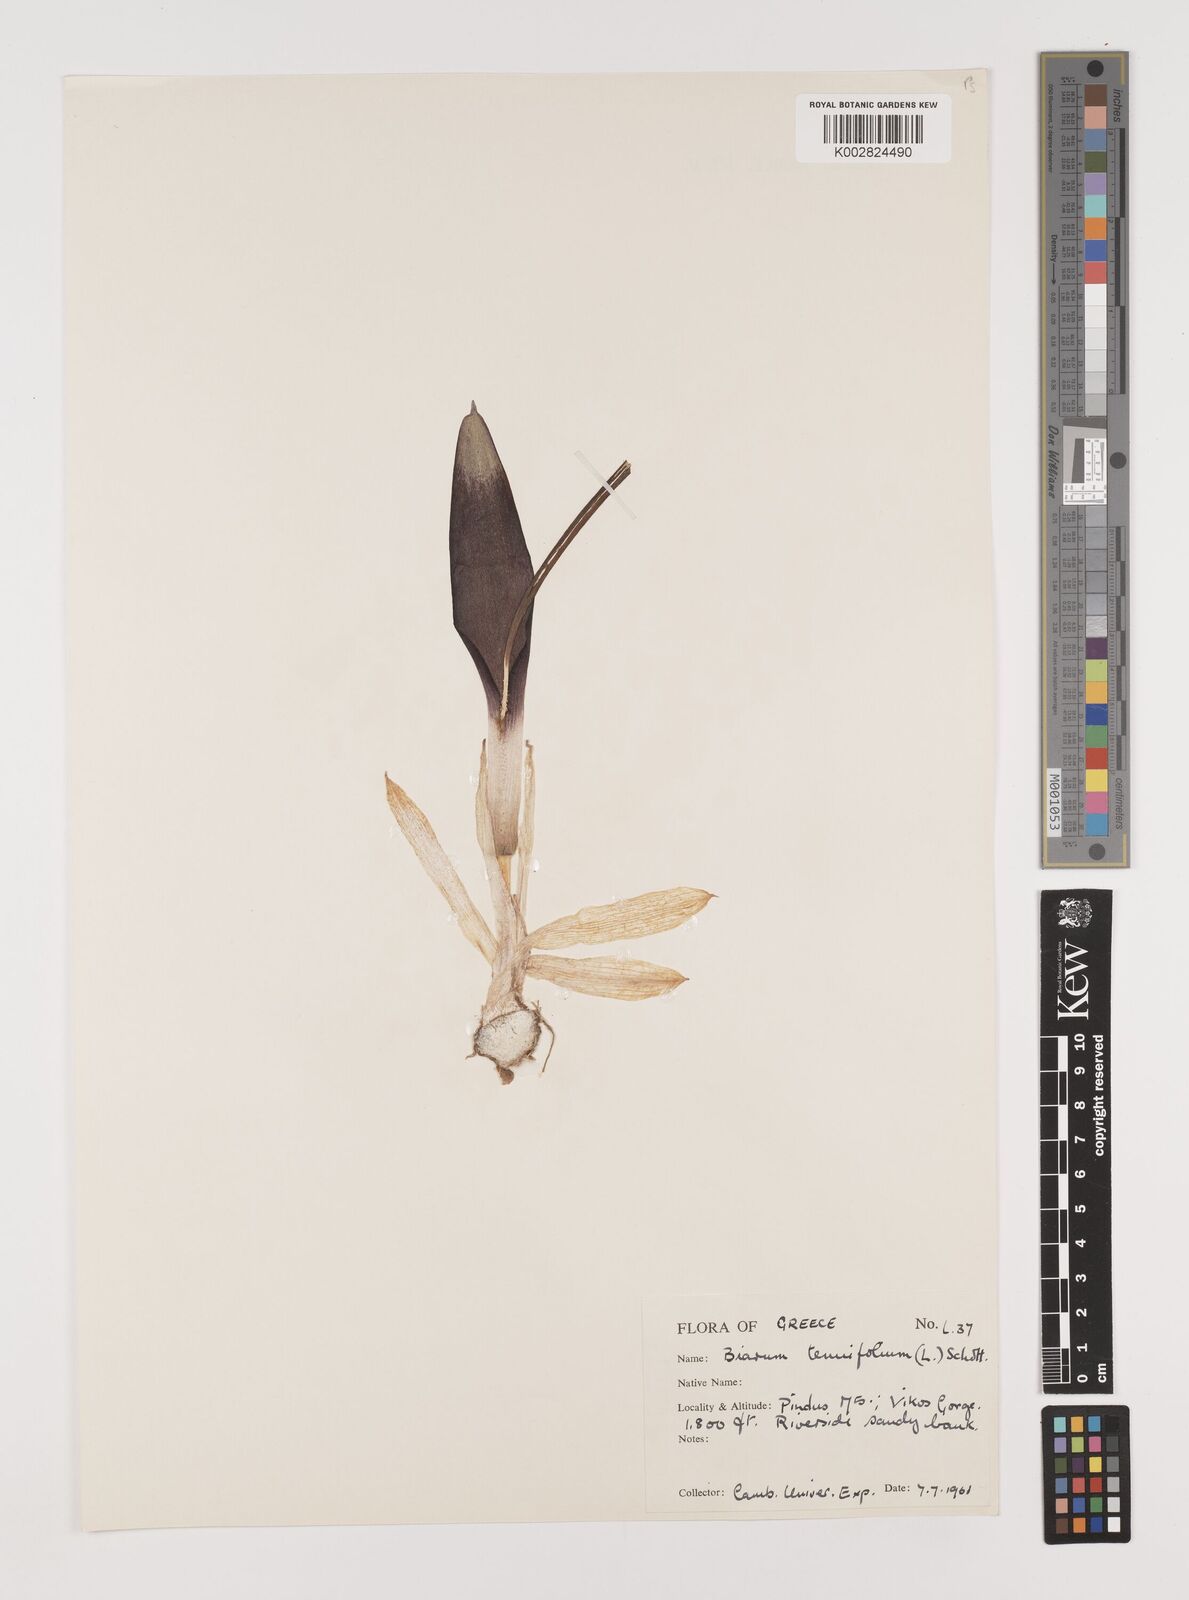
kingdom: Plantae
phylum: Tracheophyta
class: Liliopsida
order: Alismatales
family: Araceae
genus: Biarum
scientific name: Biarum tenuifolium
